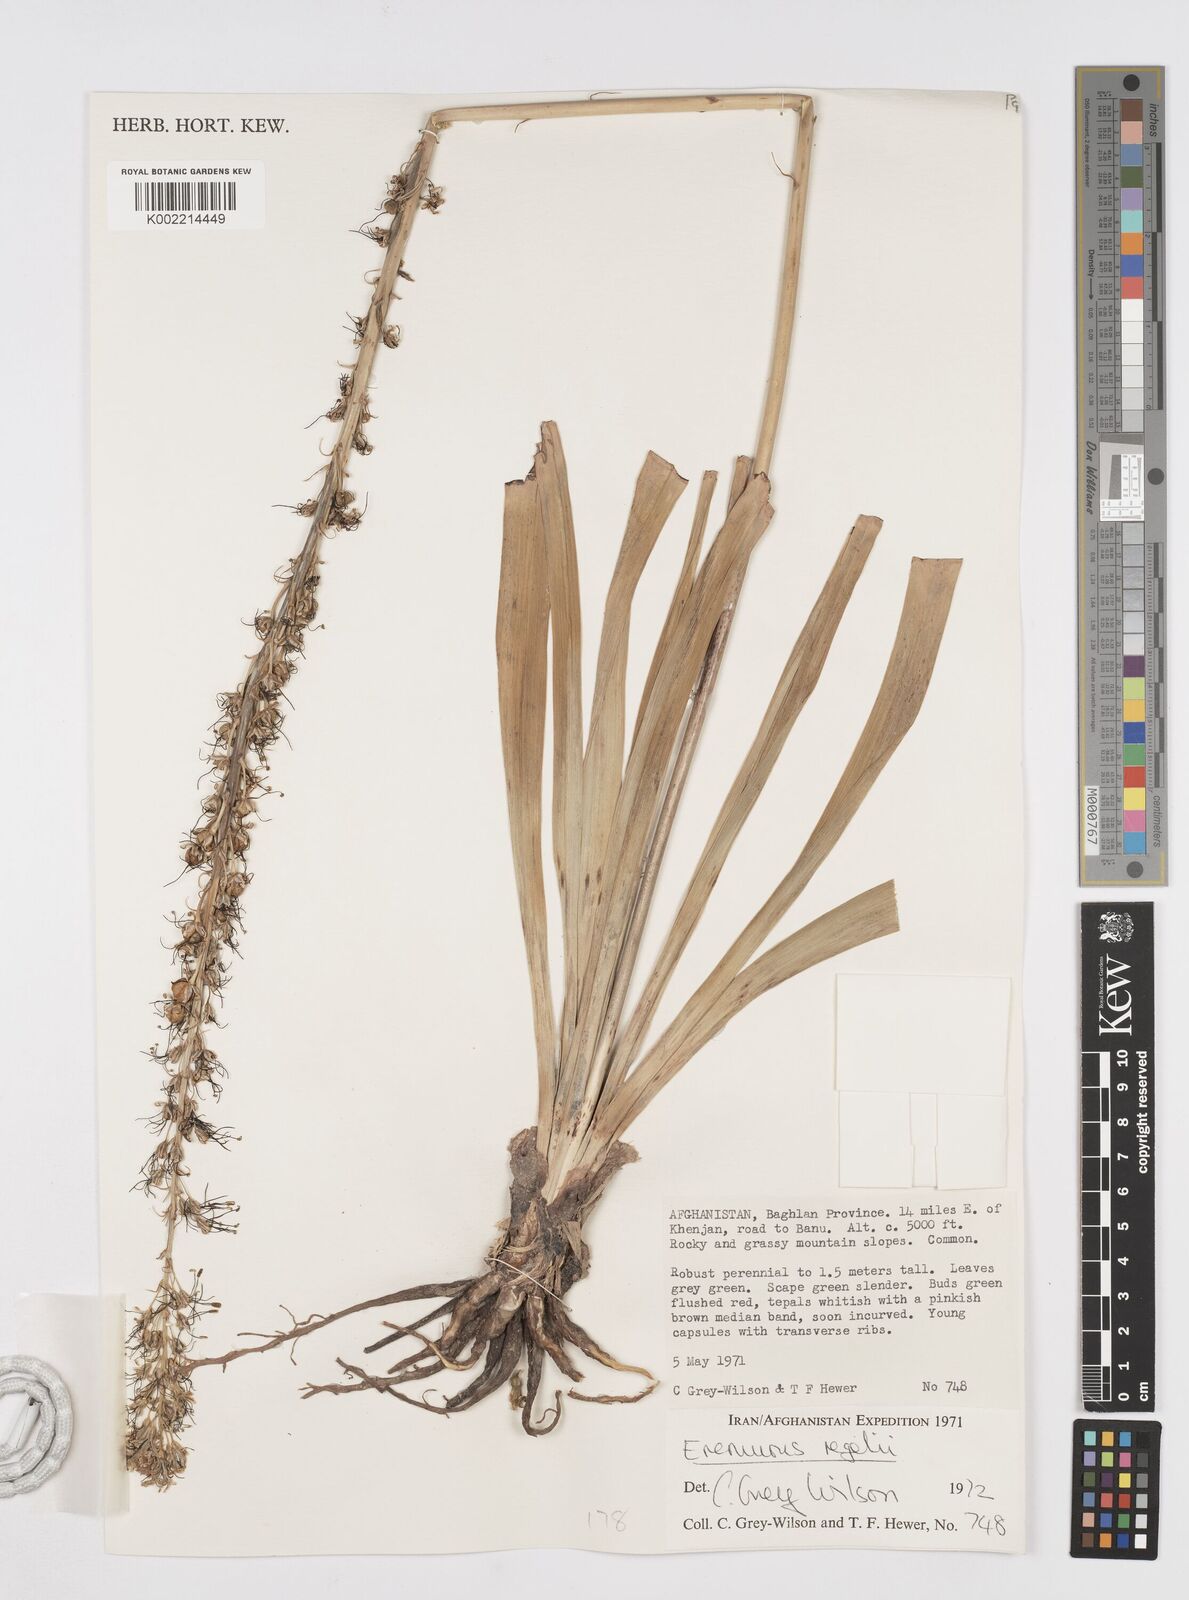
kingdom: Plantae
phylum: Tracheophyta
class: Liliopsida
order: Asparagales
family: Asphodelaceae
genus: Eremurus
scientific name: Eremurus regelii
